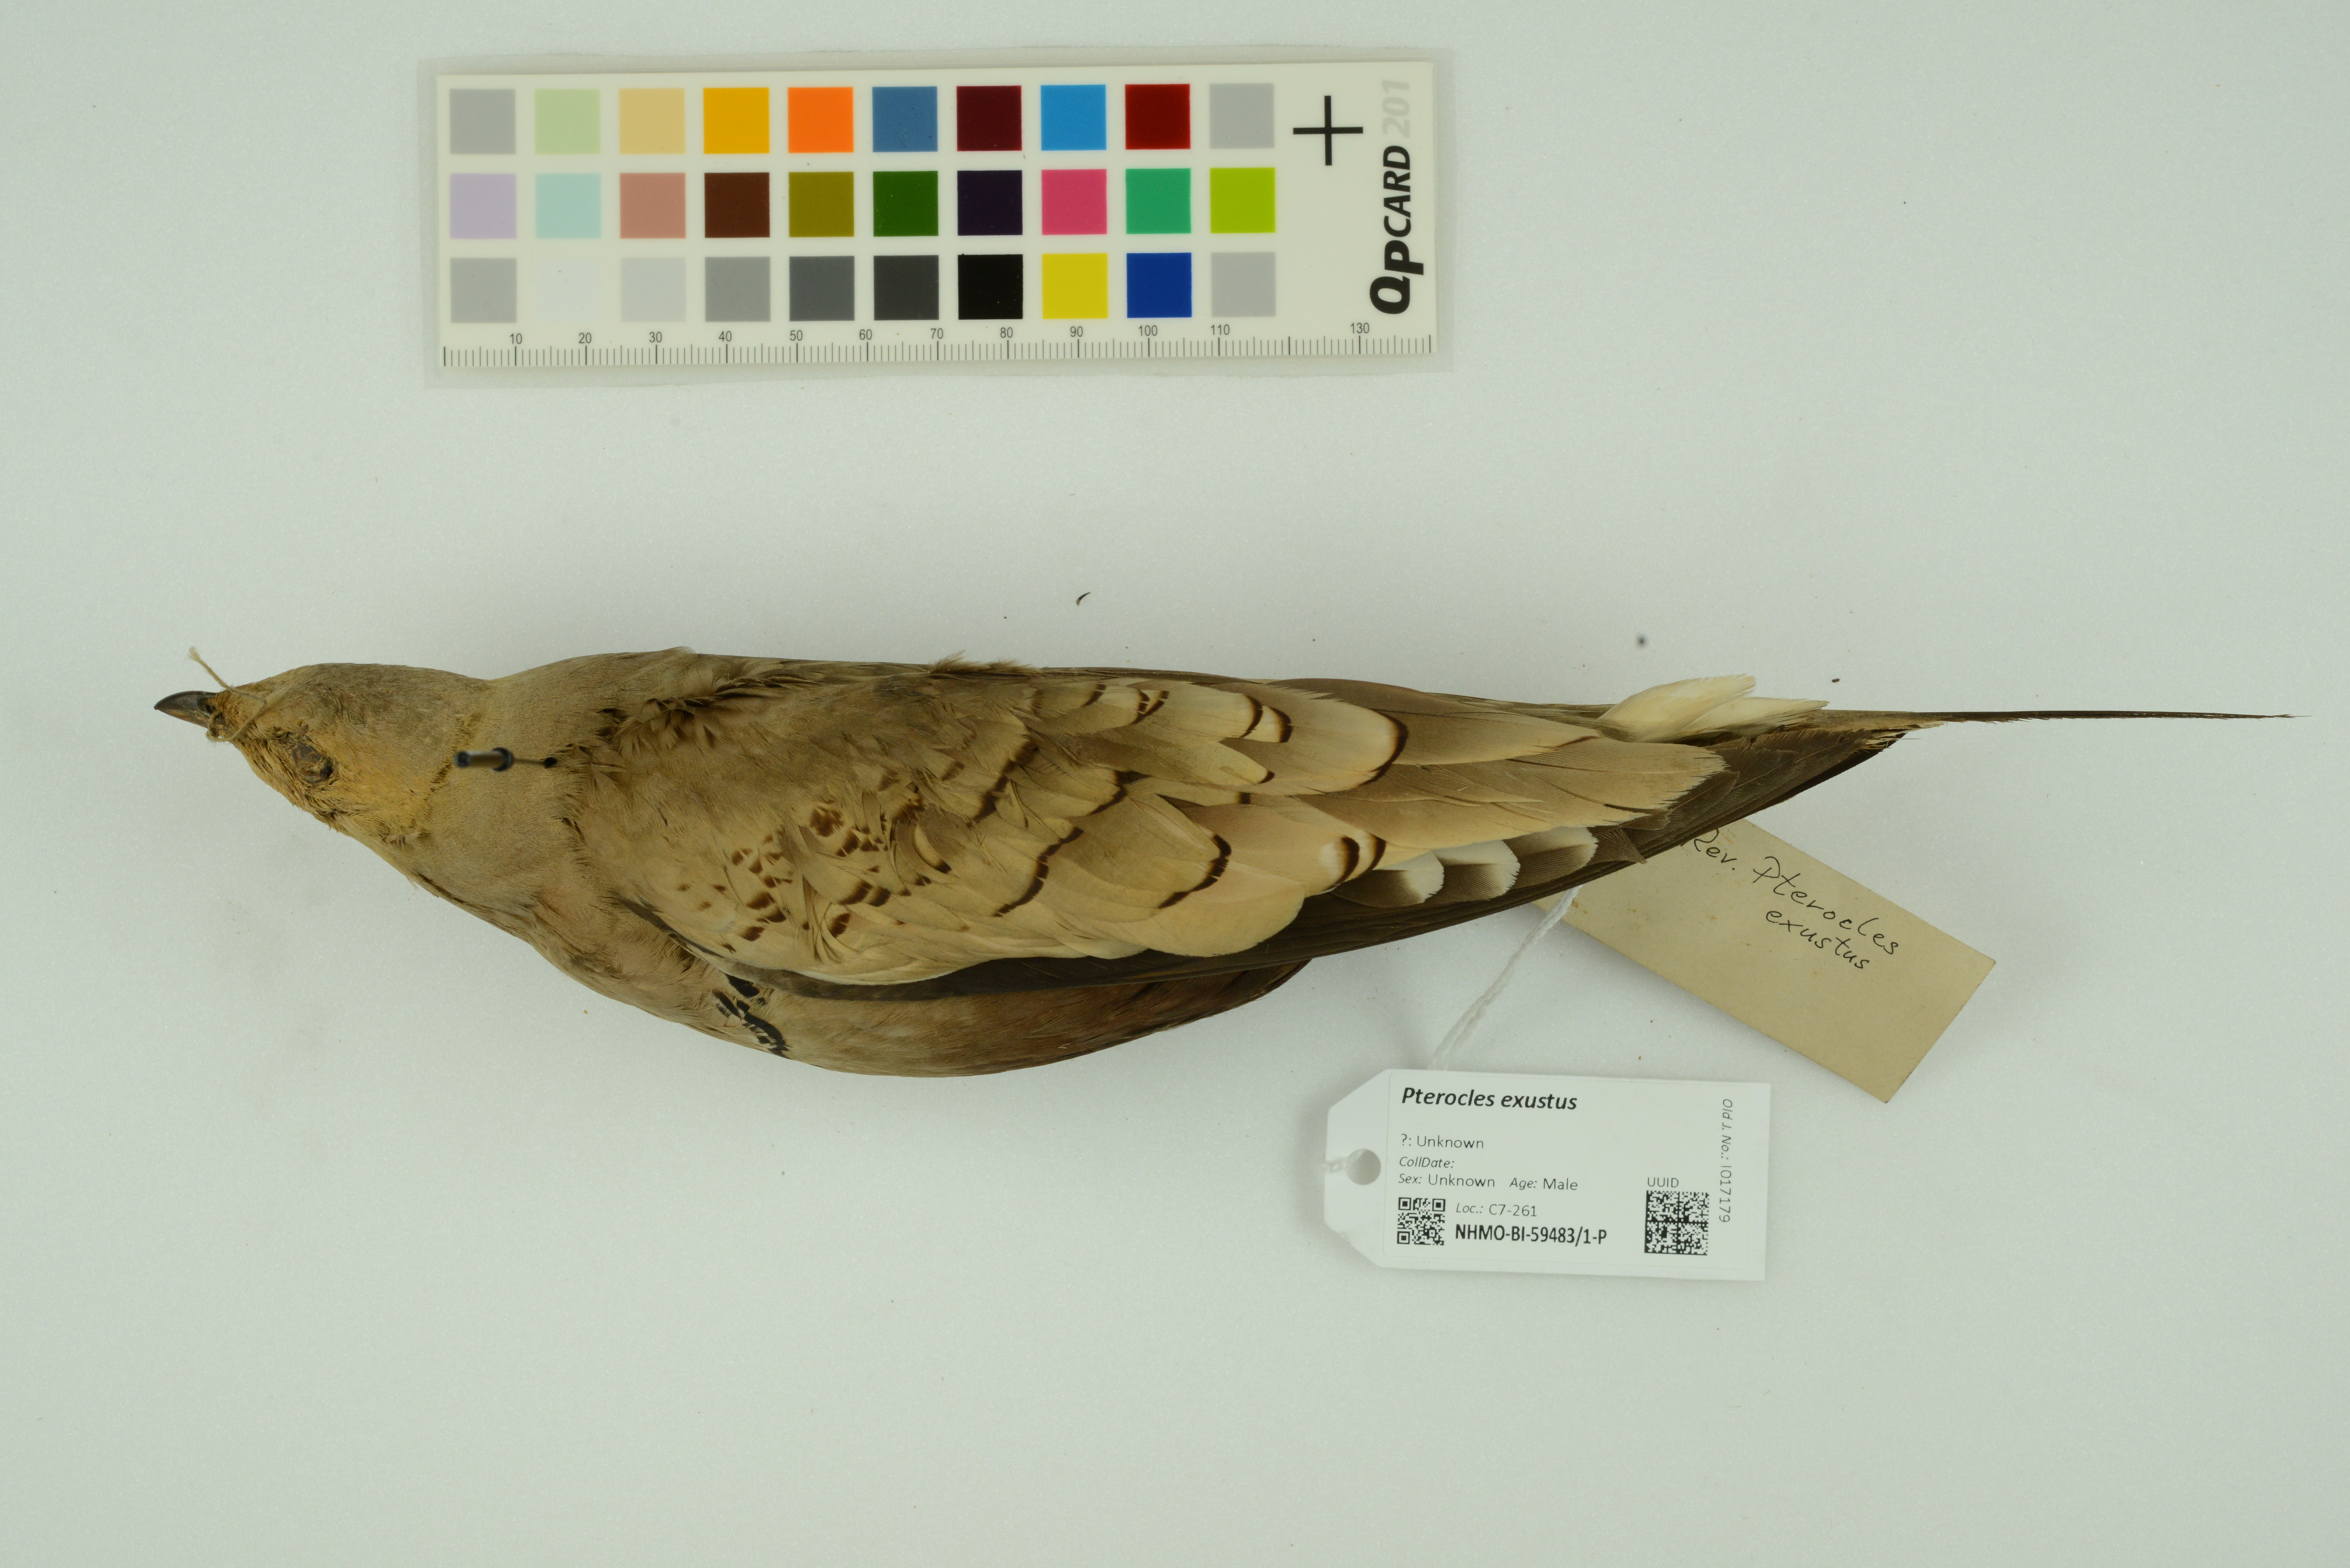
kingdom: Animalia
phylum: Chordata
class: Aves
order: Pteroclidiformes
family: Pteroclididae
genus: Pterocles
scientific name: Pterocles exustus
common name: Chestnut-bellied sandgrouse
